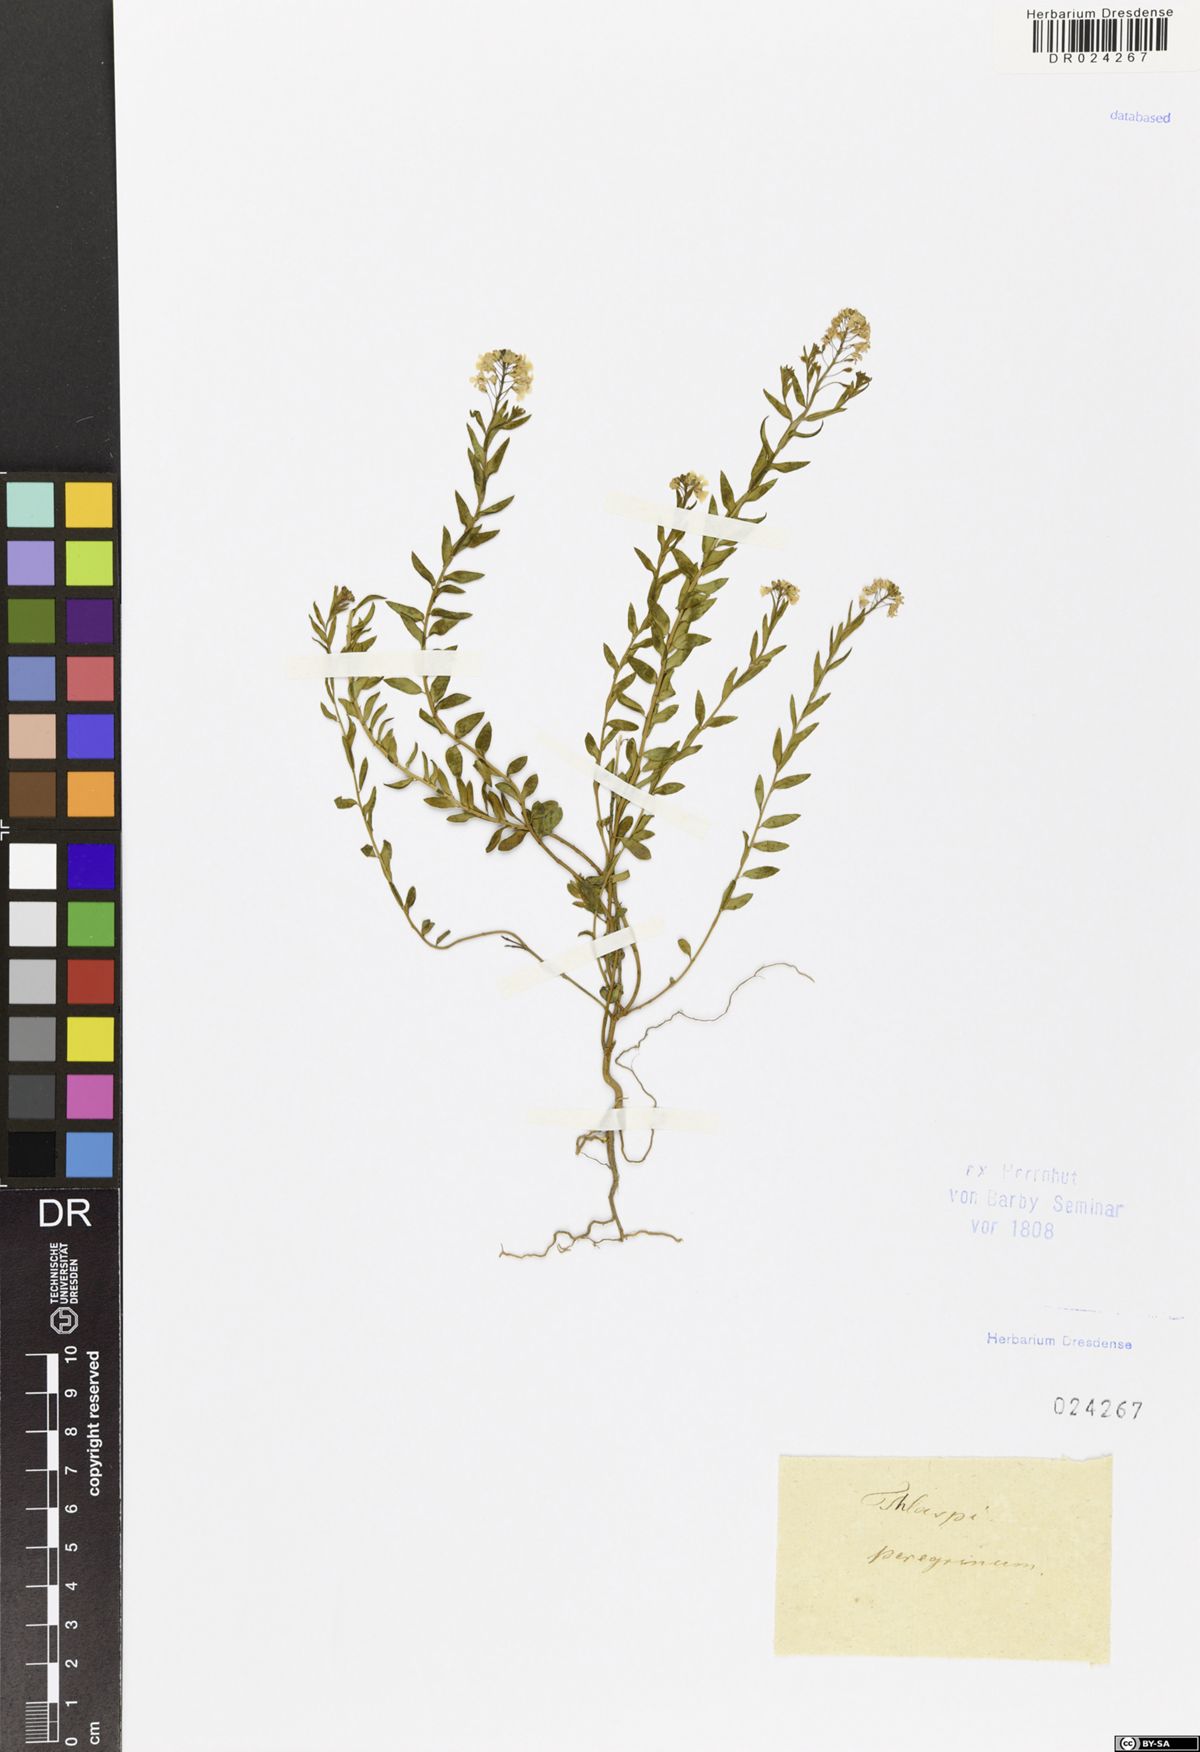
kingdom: Plantae
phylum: Tracheophyta
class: Magnoliopsida
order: Brassicales
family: Brassicaceae
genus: Aethionema
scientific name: Aethionema saxatile
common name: Burnt candytuft
